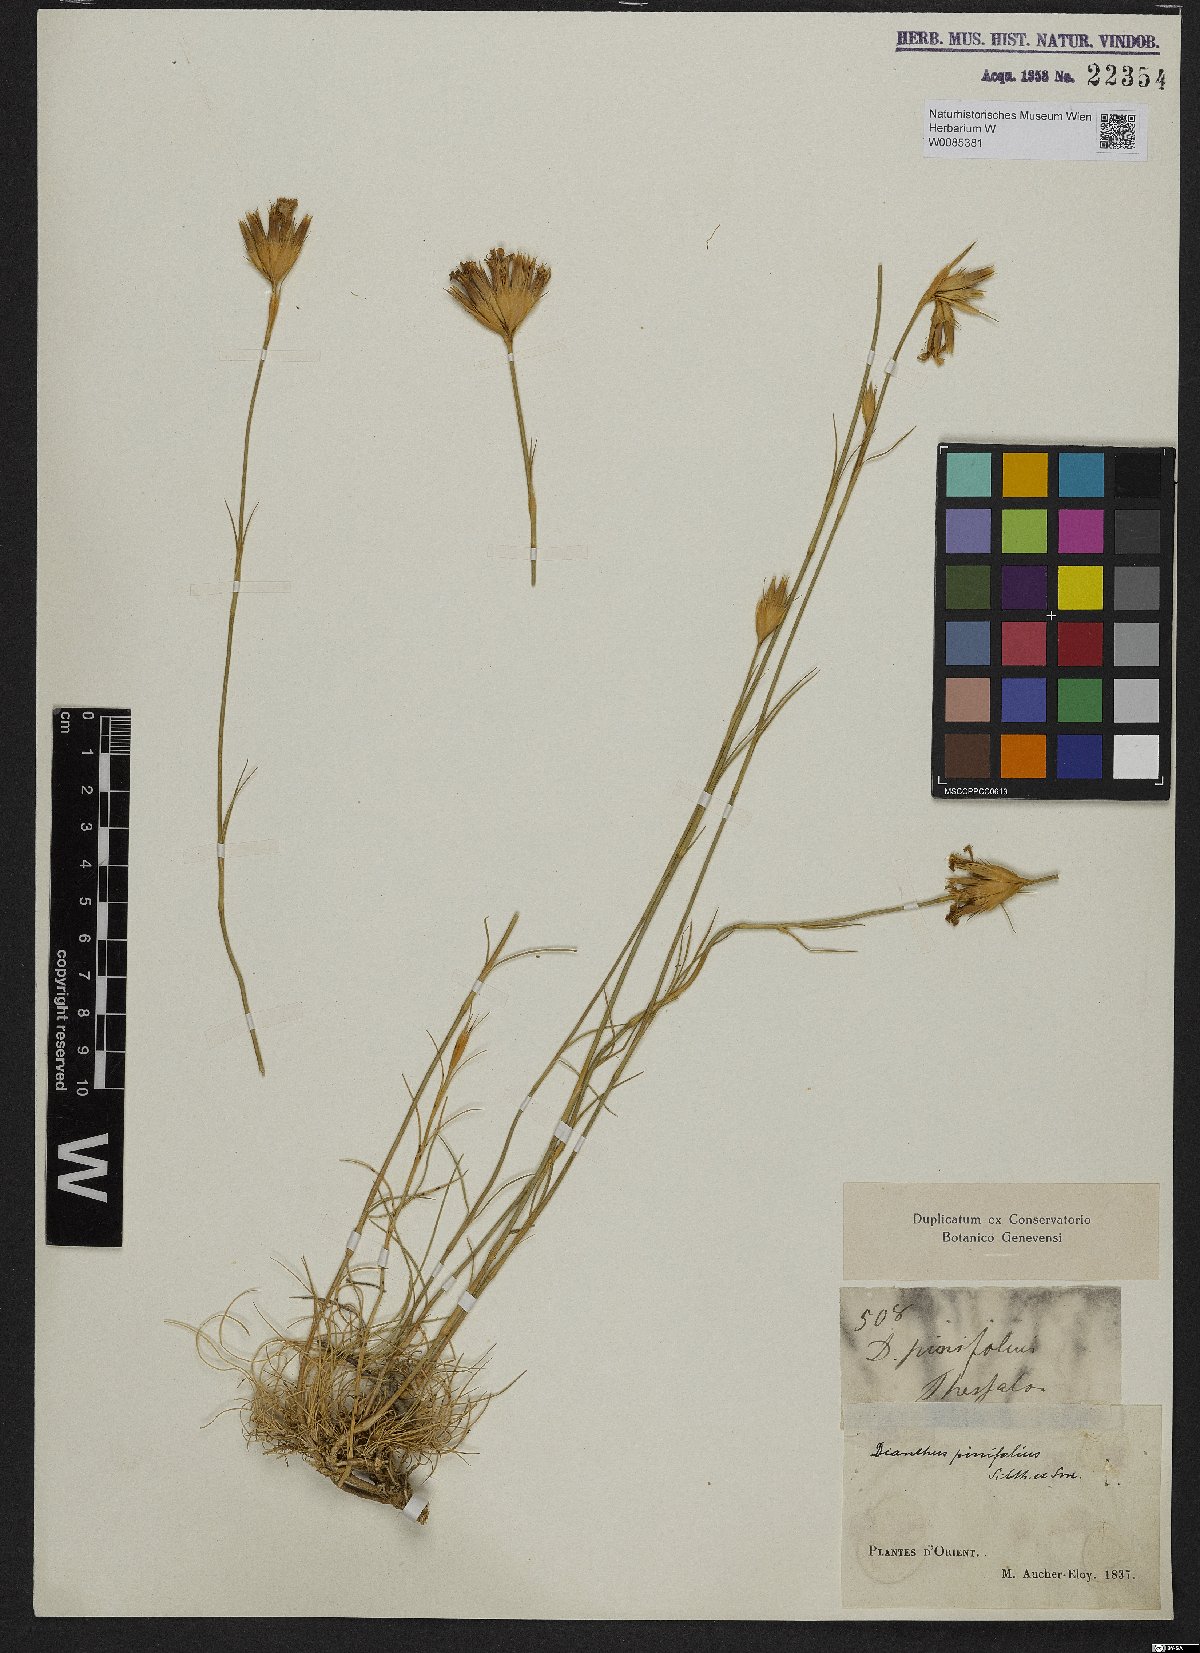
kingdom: Plantae
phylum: Tracheophyta
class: Magnoliopsida
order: Caryophyllales
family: Caryophyllaceae
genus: Dianthus
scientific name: Dianthus pinifolius
